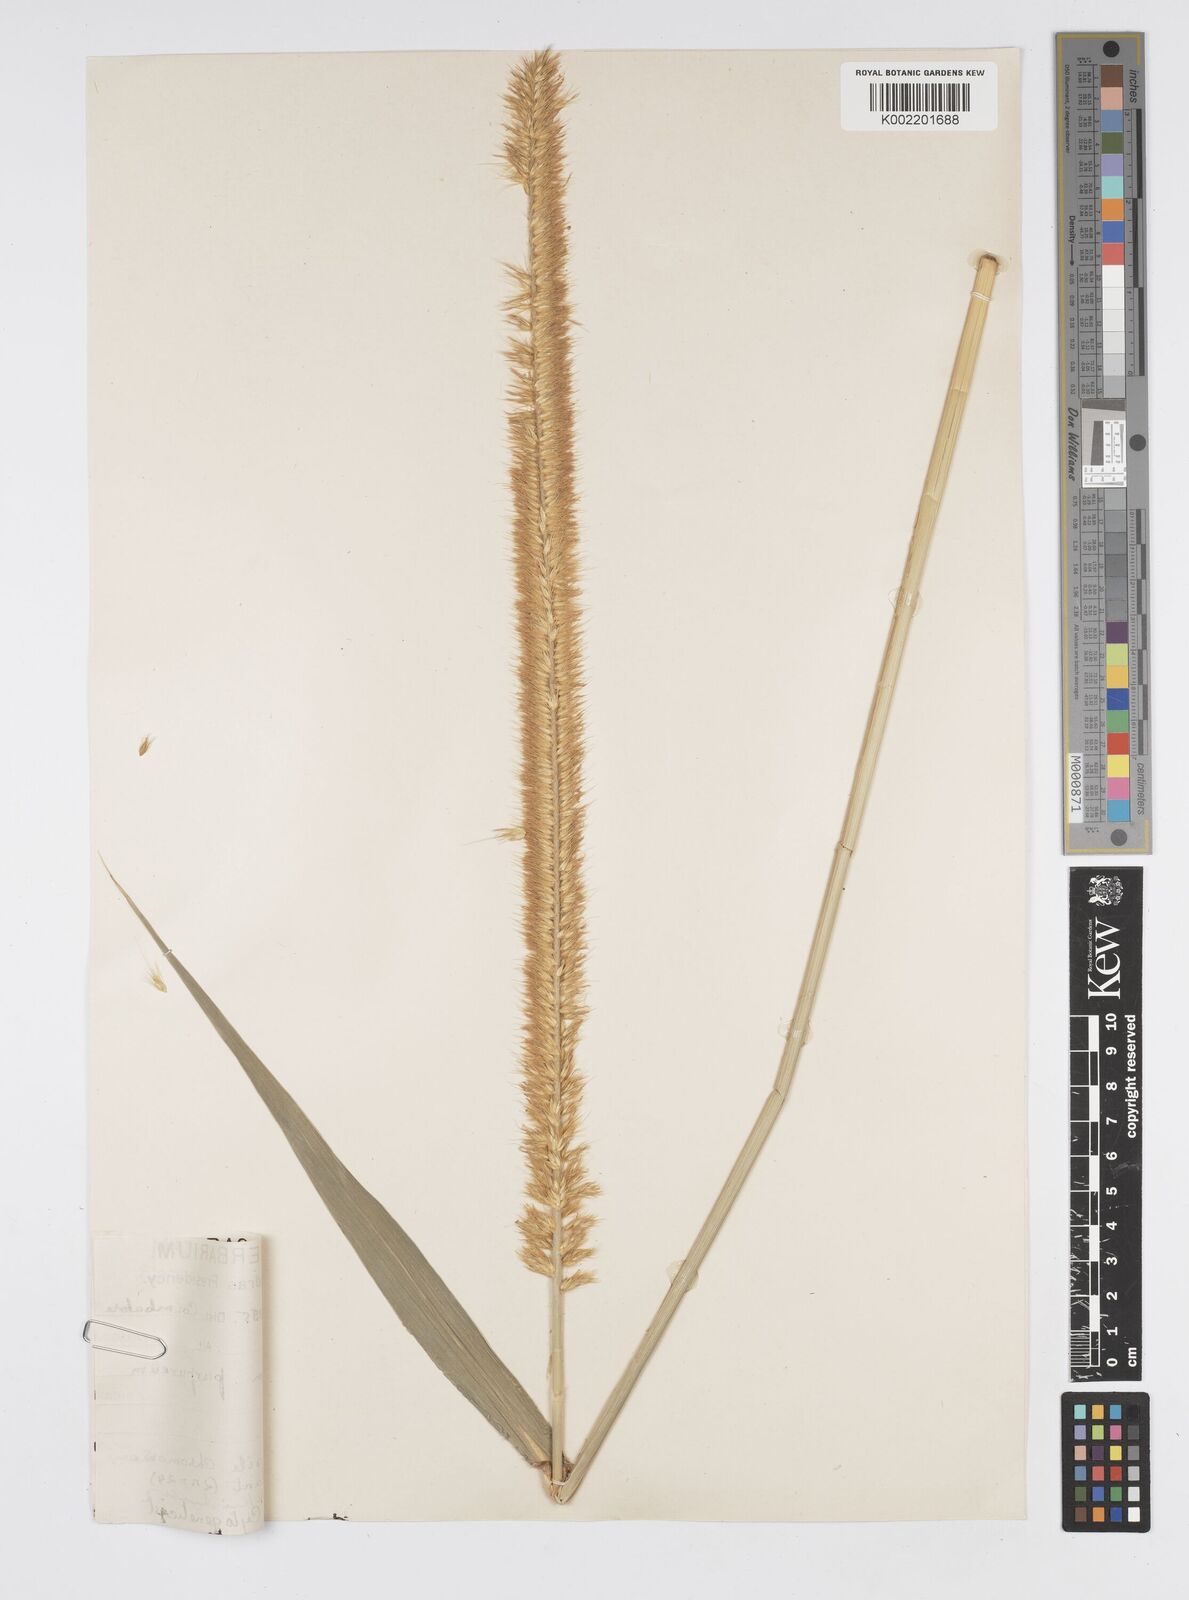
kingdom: Plantae
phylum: Tracheophyta
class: Liliopsida
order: Poales
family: Poaceae
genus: Cenchrus
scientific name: Cenchrus purpureus
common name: Elephant grass
